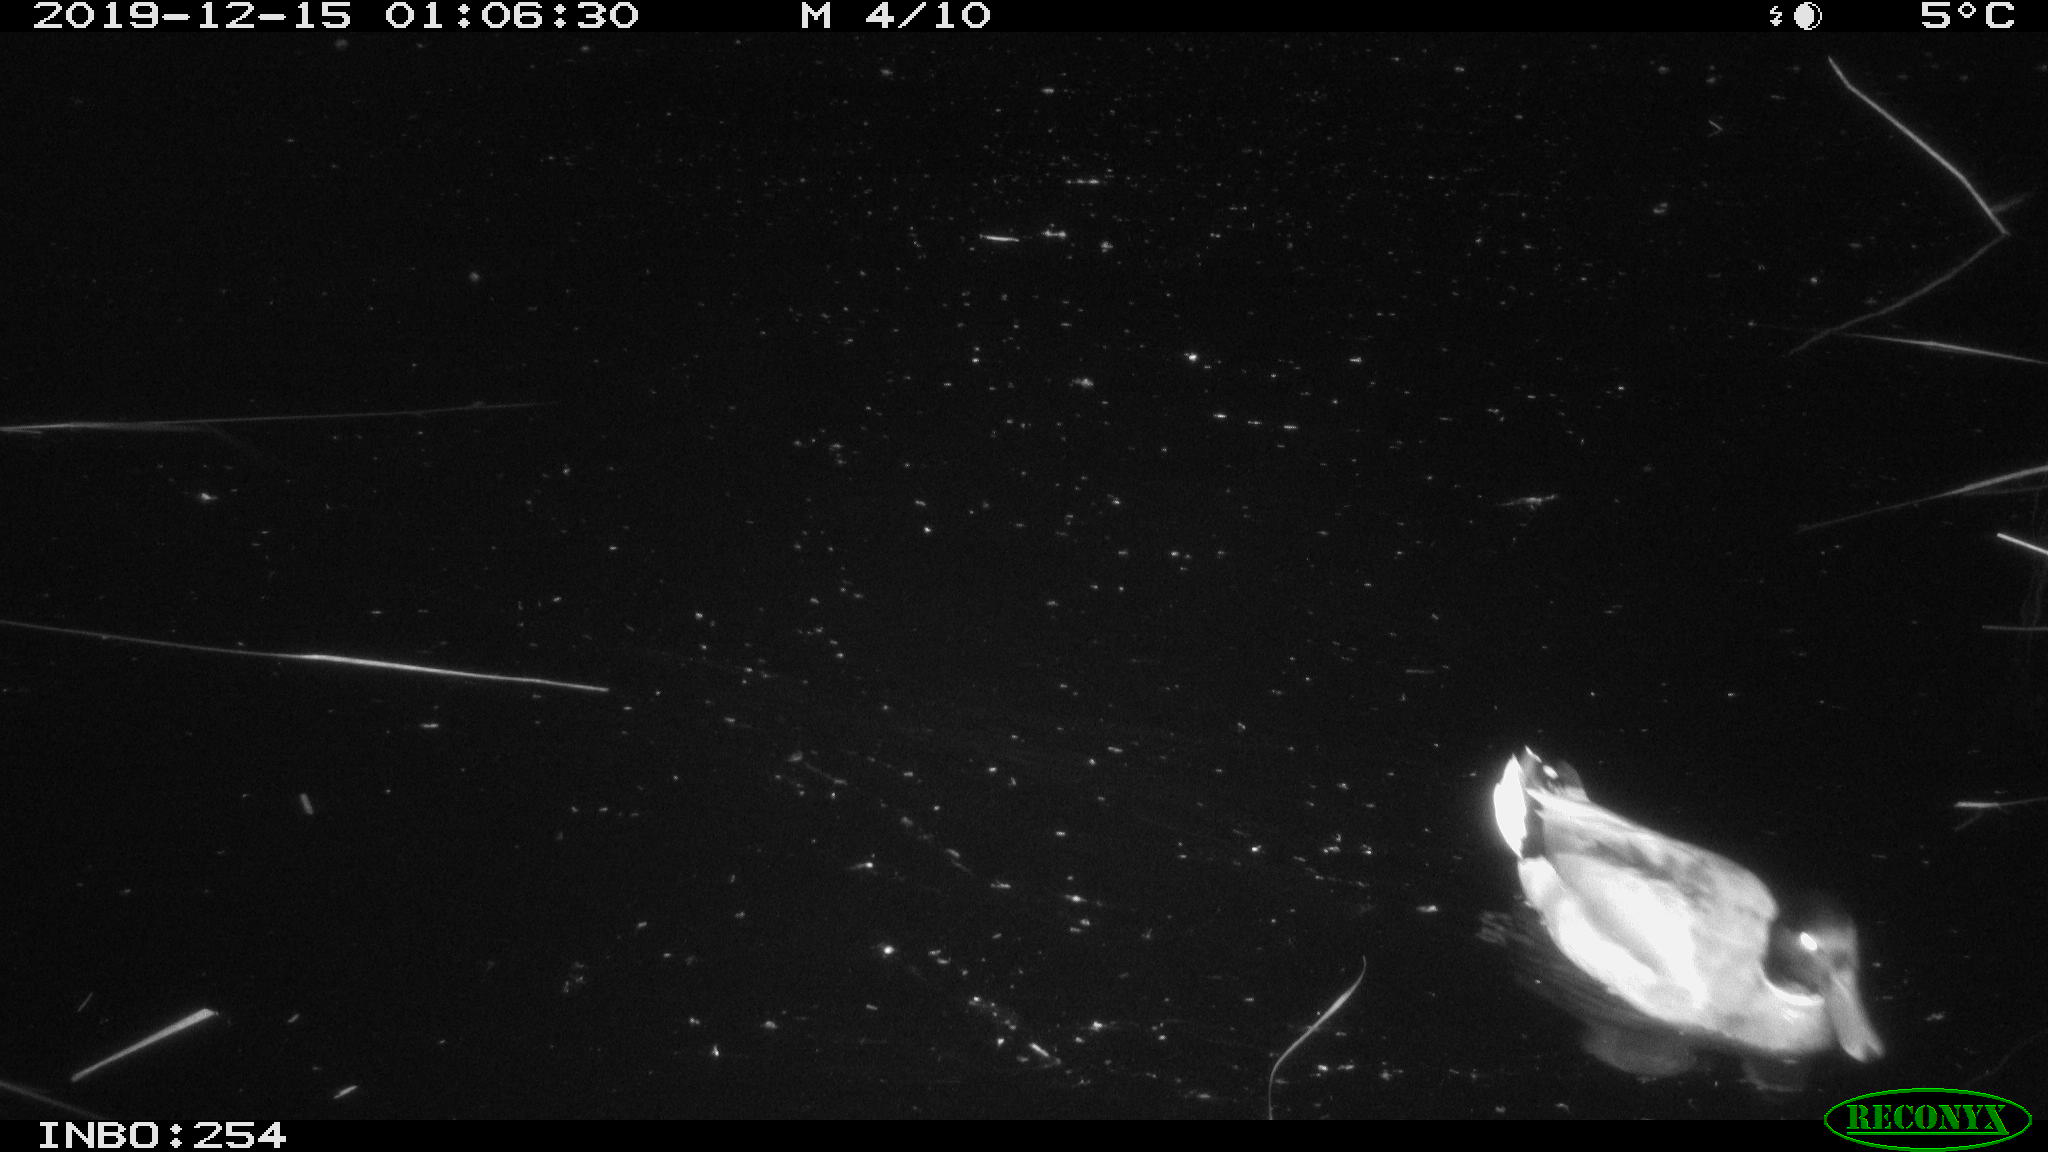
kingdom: Animalia
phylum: Chordata
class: Aves
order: Anseriformes
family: Anatidae
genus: Anas
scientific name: Anas platyrhynchos
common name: Mallard
